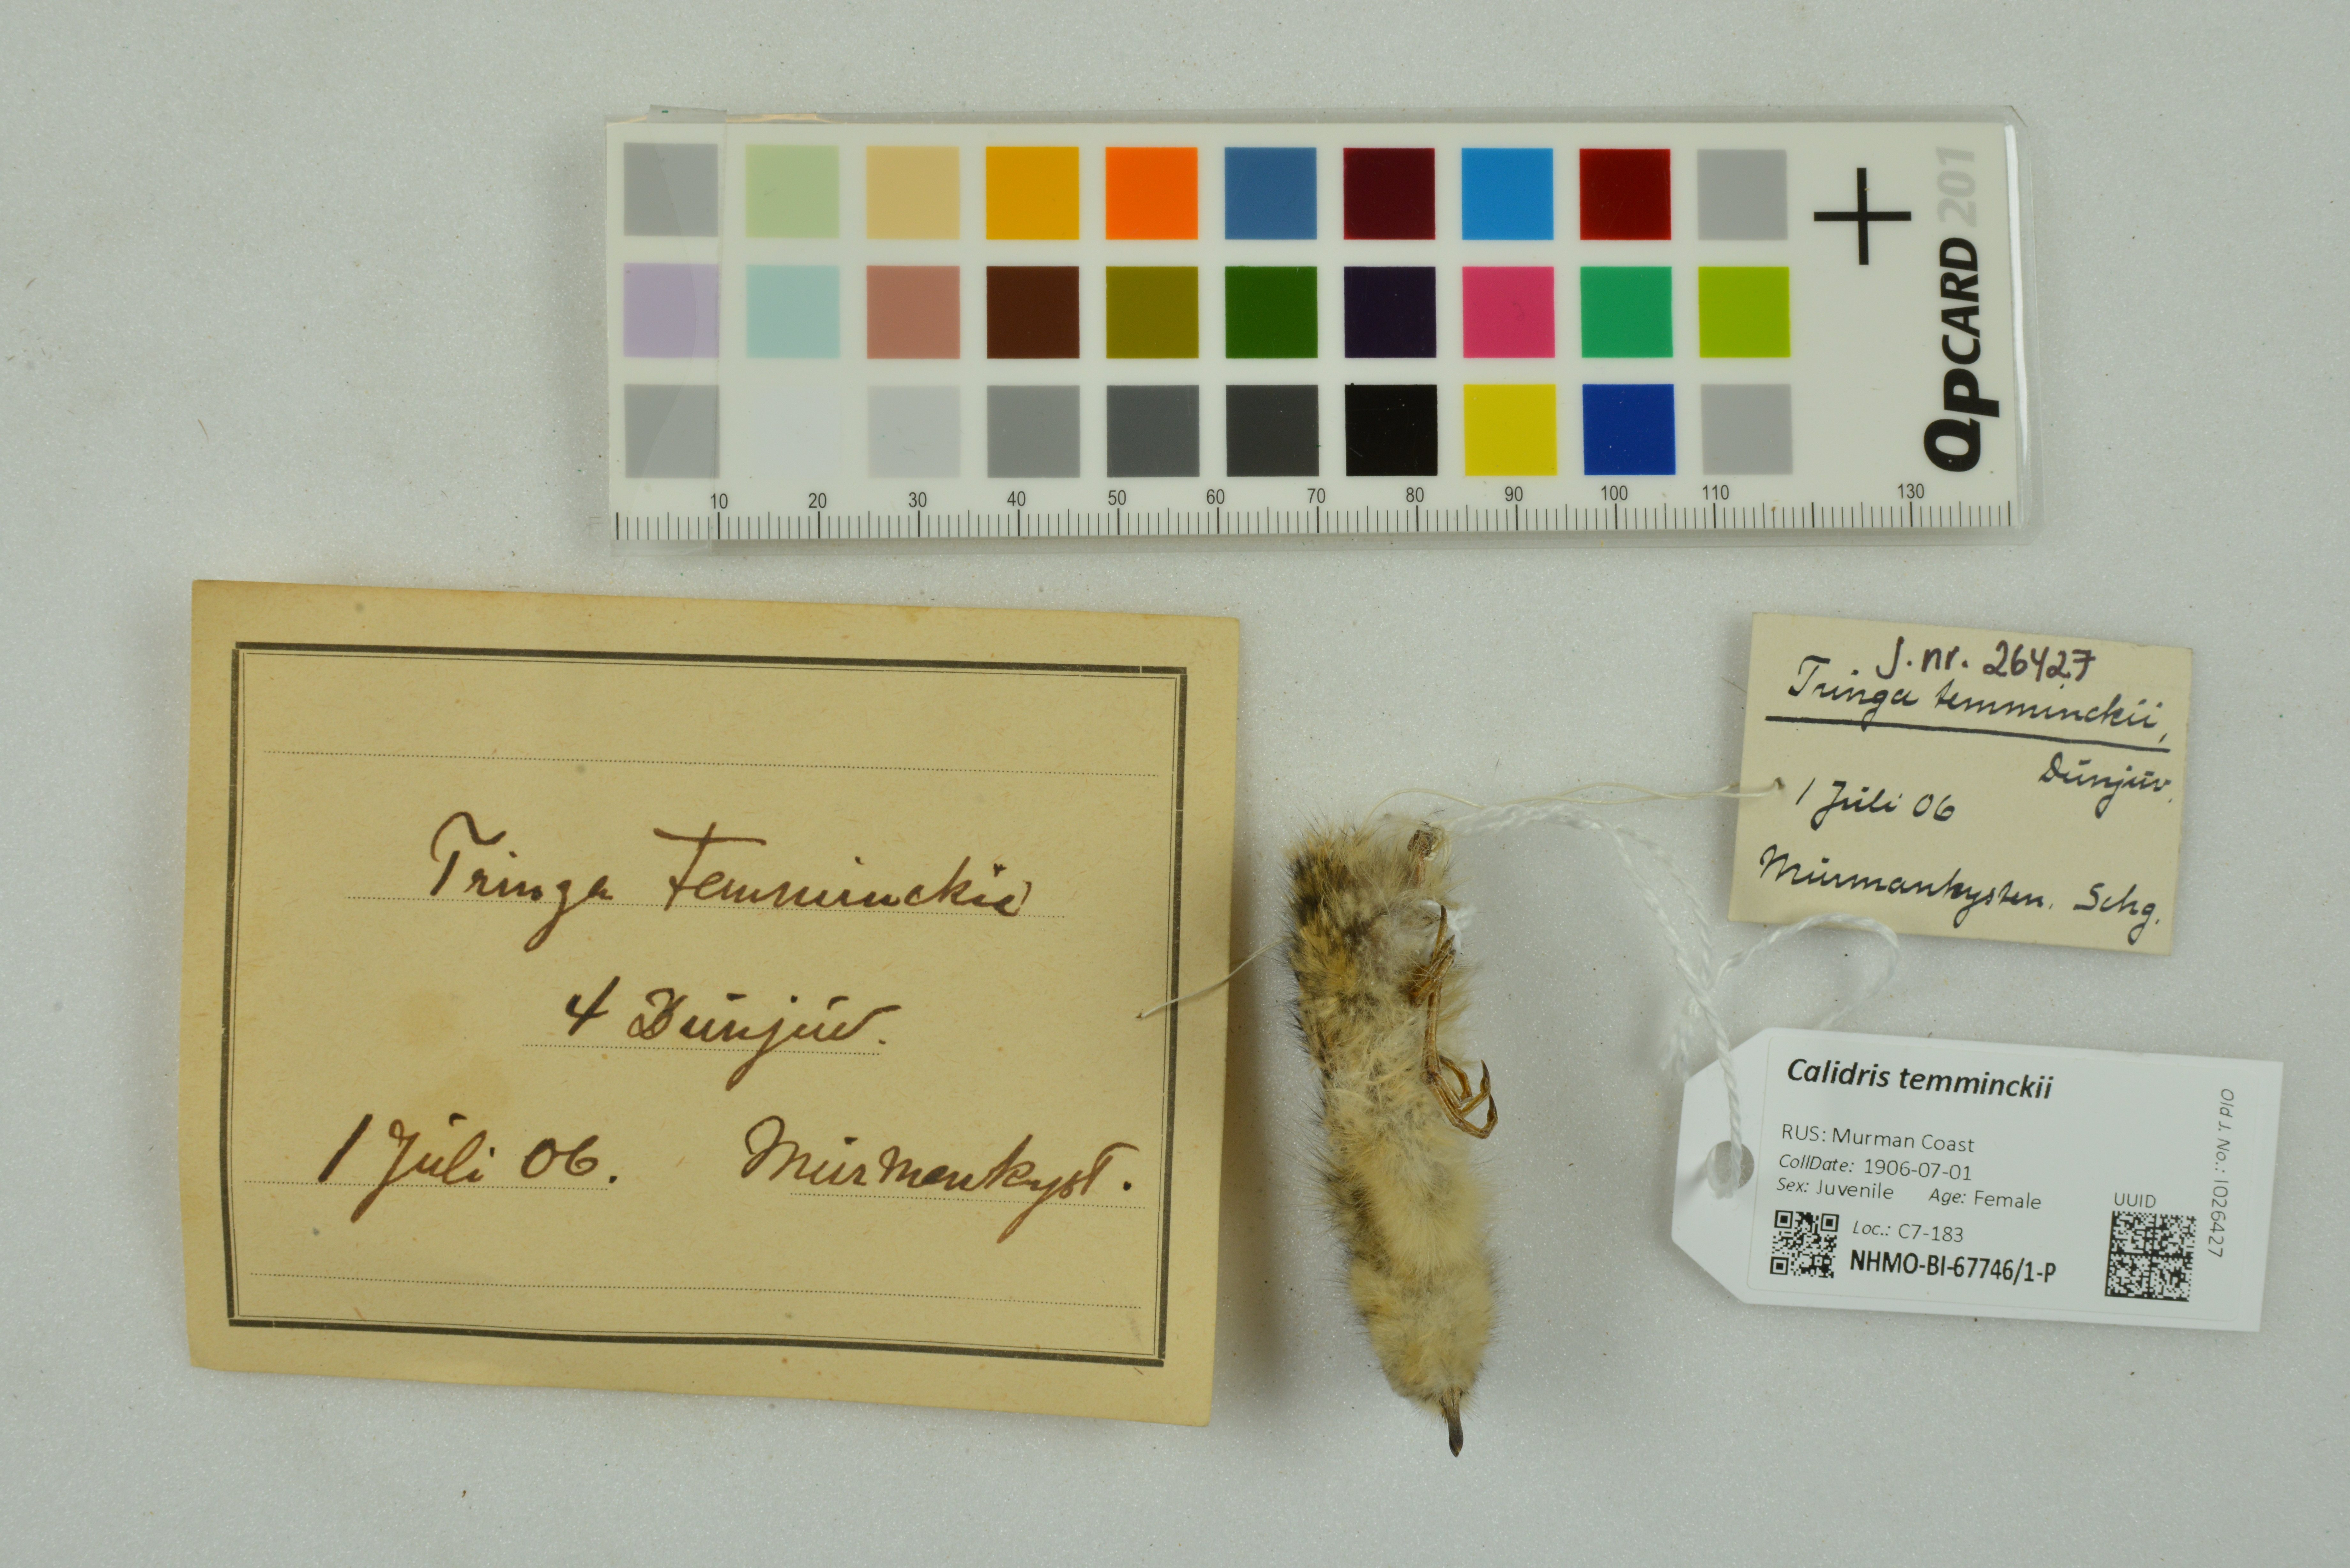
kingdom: Animalia
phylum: Chordata
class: Aves
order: Charadriiformes
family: Scolopacidae
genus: Calidris
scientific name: Calidris temminckii
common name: Temminck's stint
